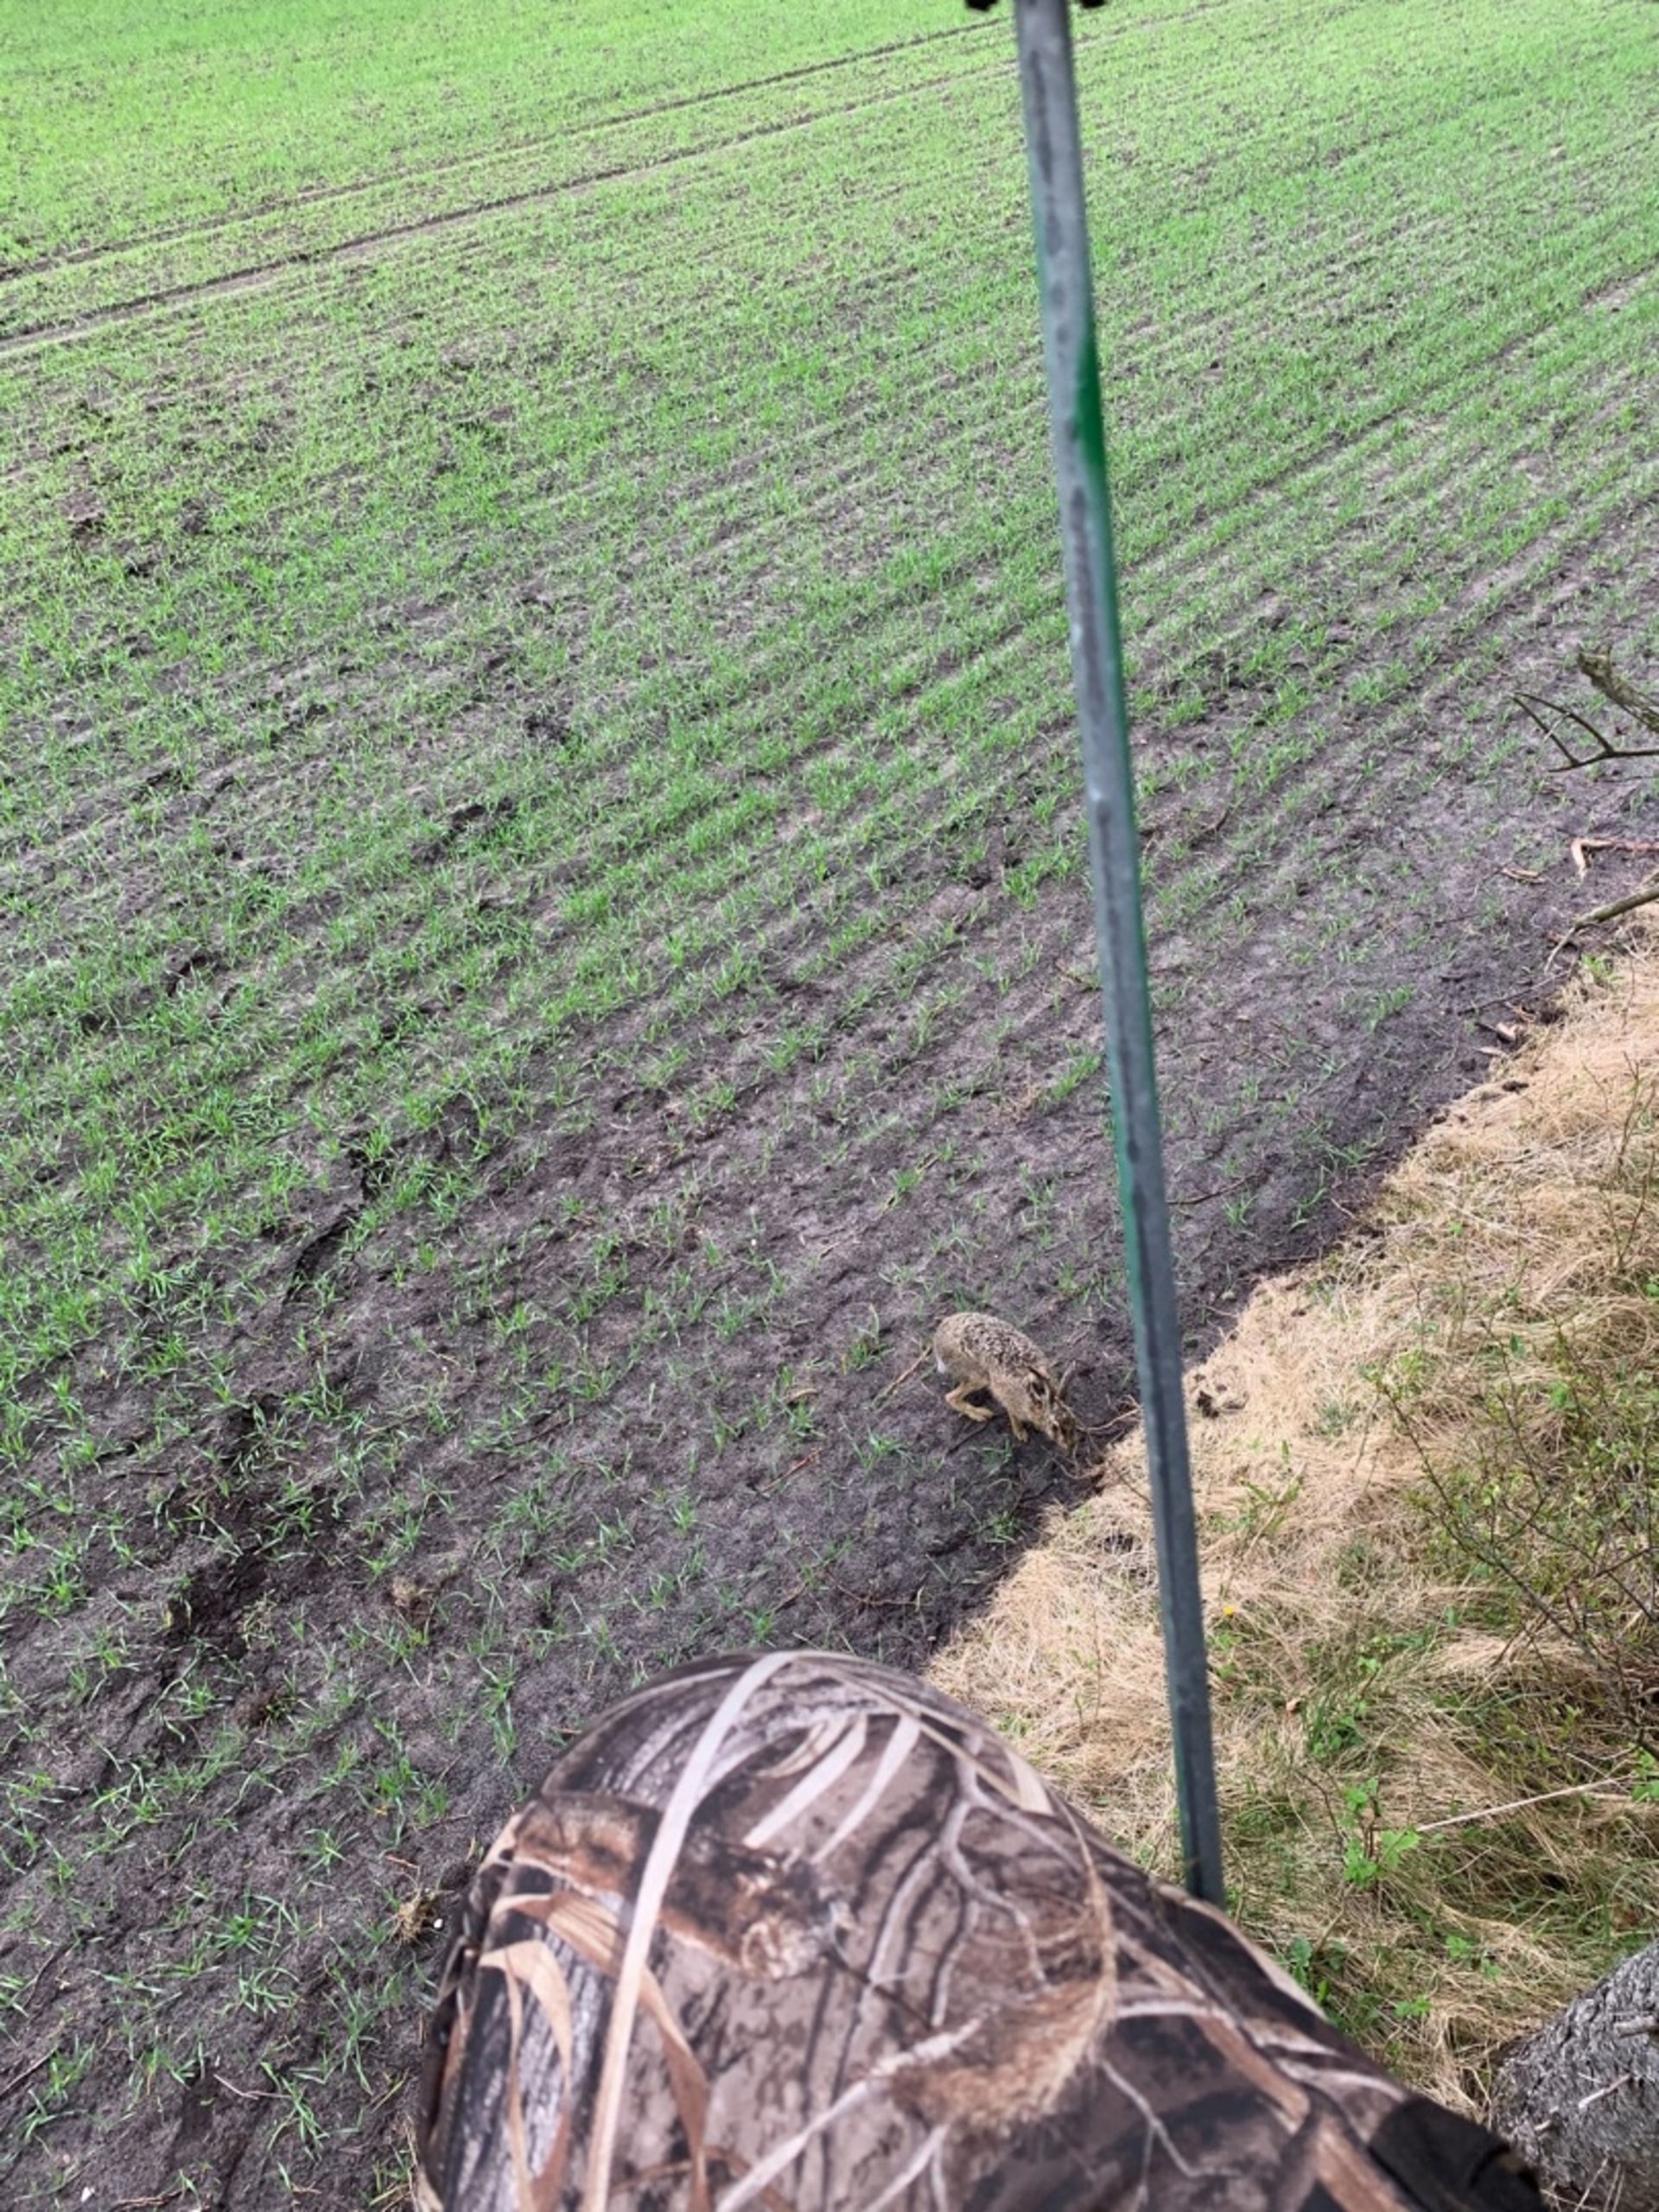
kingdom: Animalia
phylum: Chordata
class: Mammalia
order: Lagomorpha
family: Leporidae
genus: Lepus
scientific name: Lepus europaeus
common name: Hare
